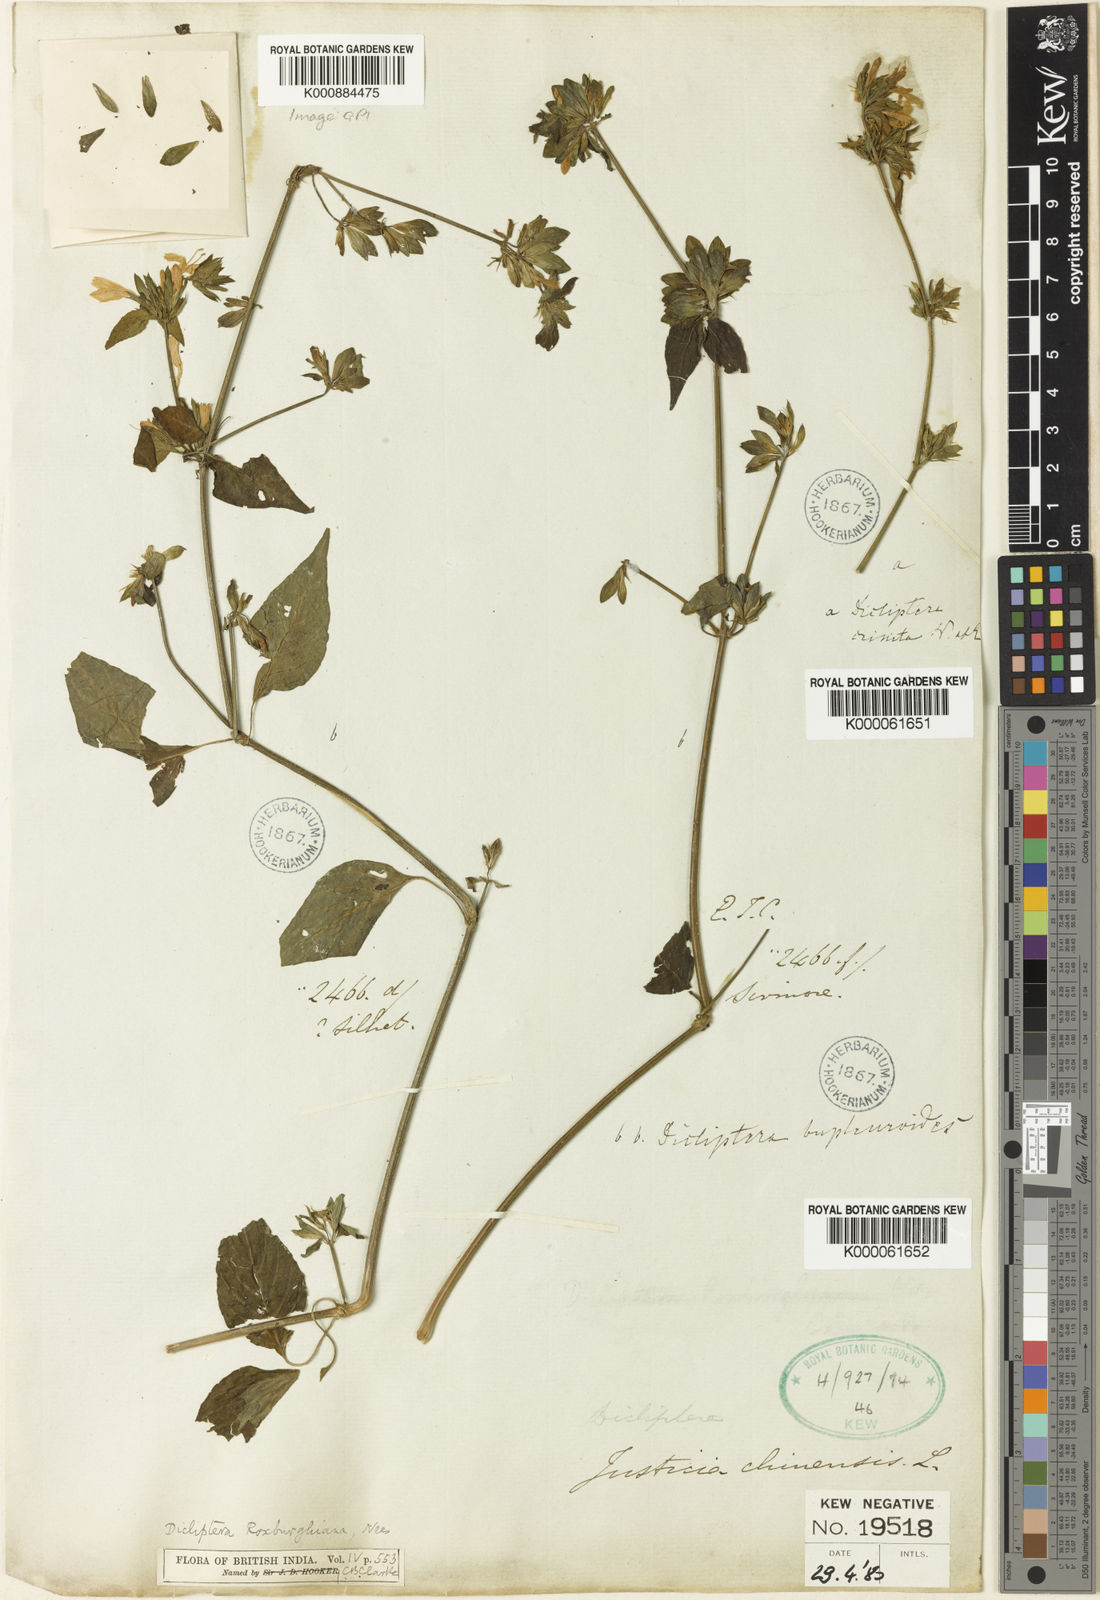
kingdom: Plantae
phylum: Tracheophyta
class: Magnoliopsida
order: Lamiales
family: Acanthaceae
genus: Dicliptera
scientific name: Dicliptera bupleuroides
